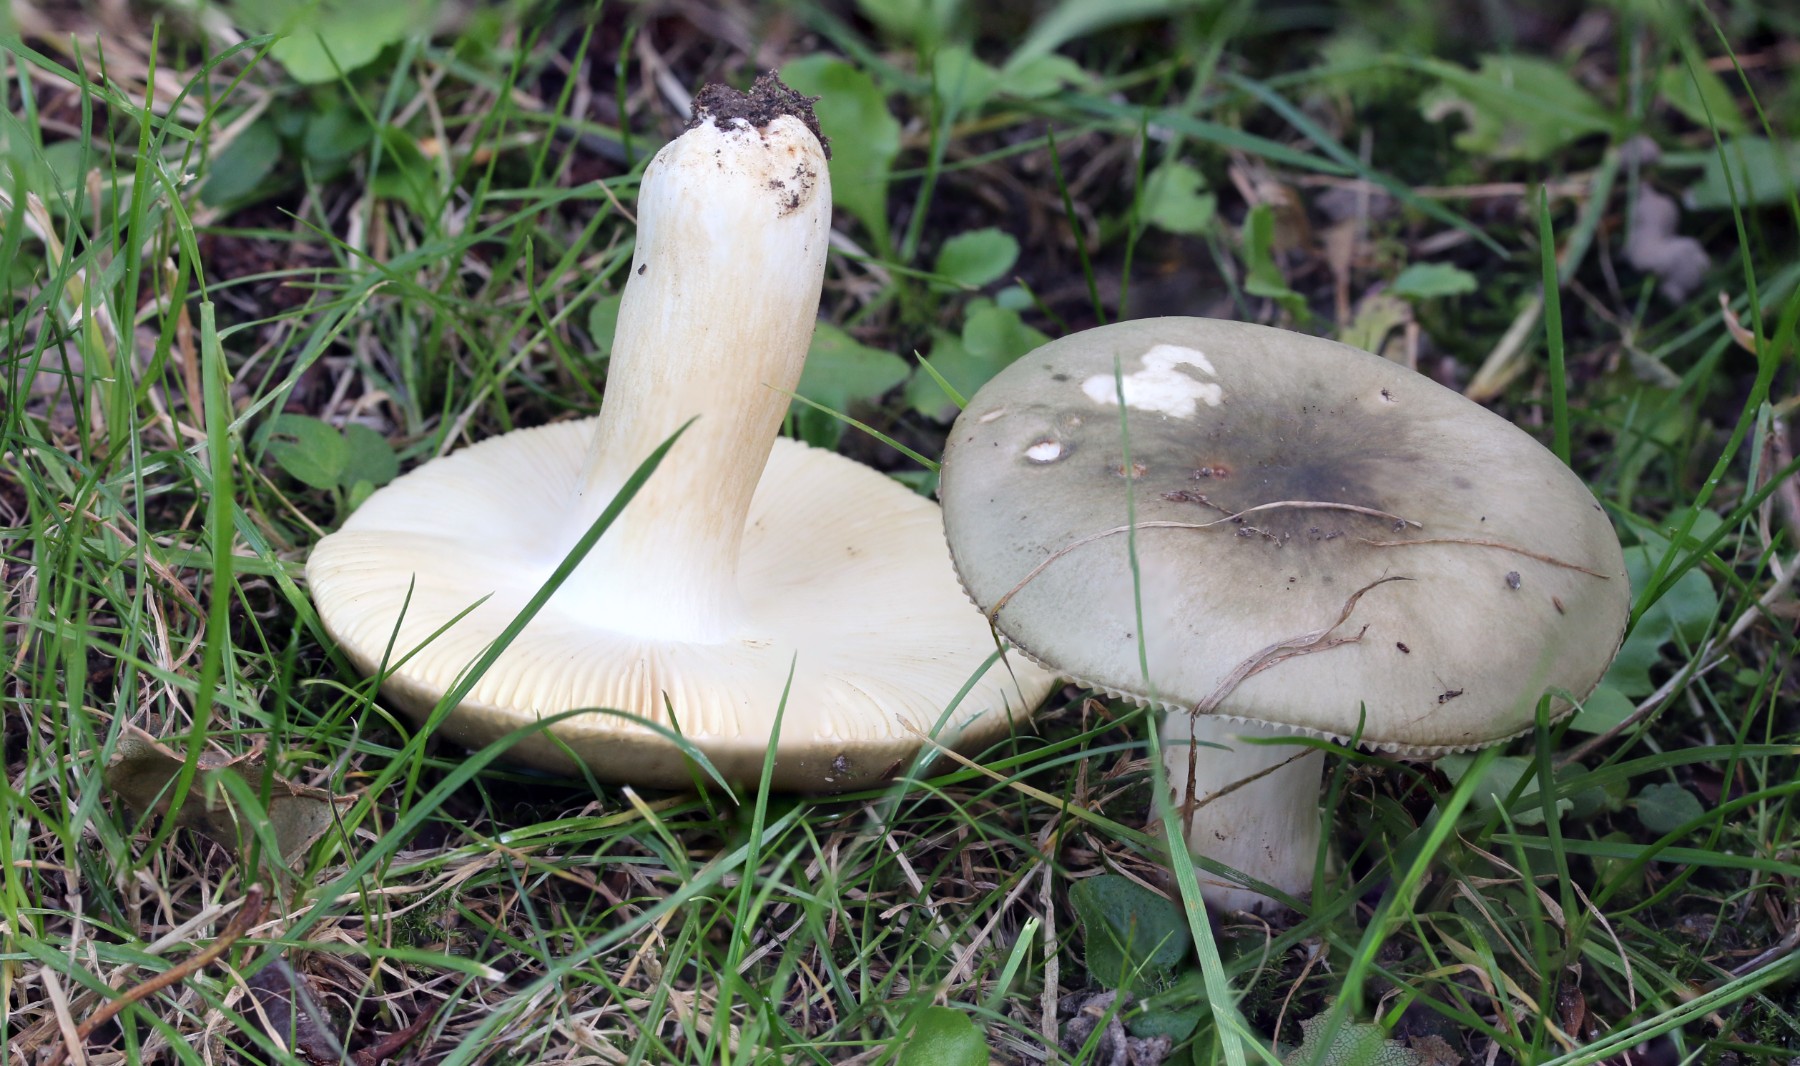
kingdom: Fungi
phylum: Basidiomycota
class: Agaricomycetes
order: Russulales
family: Russulaceae
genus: Russula
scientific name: Russula aeruginea
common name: græsgrøn skørhat
